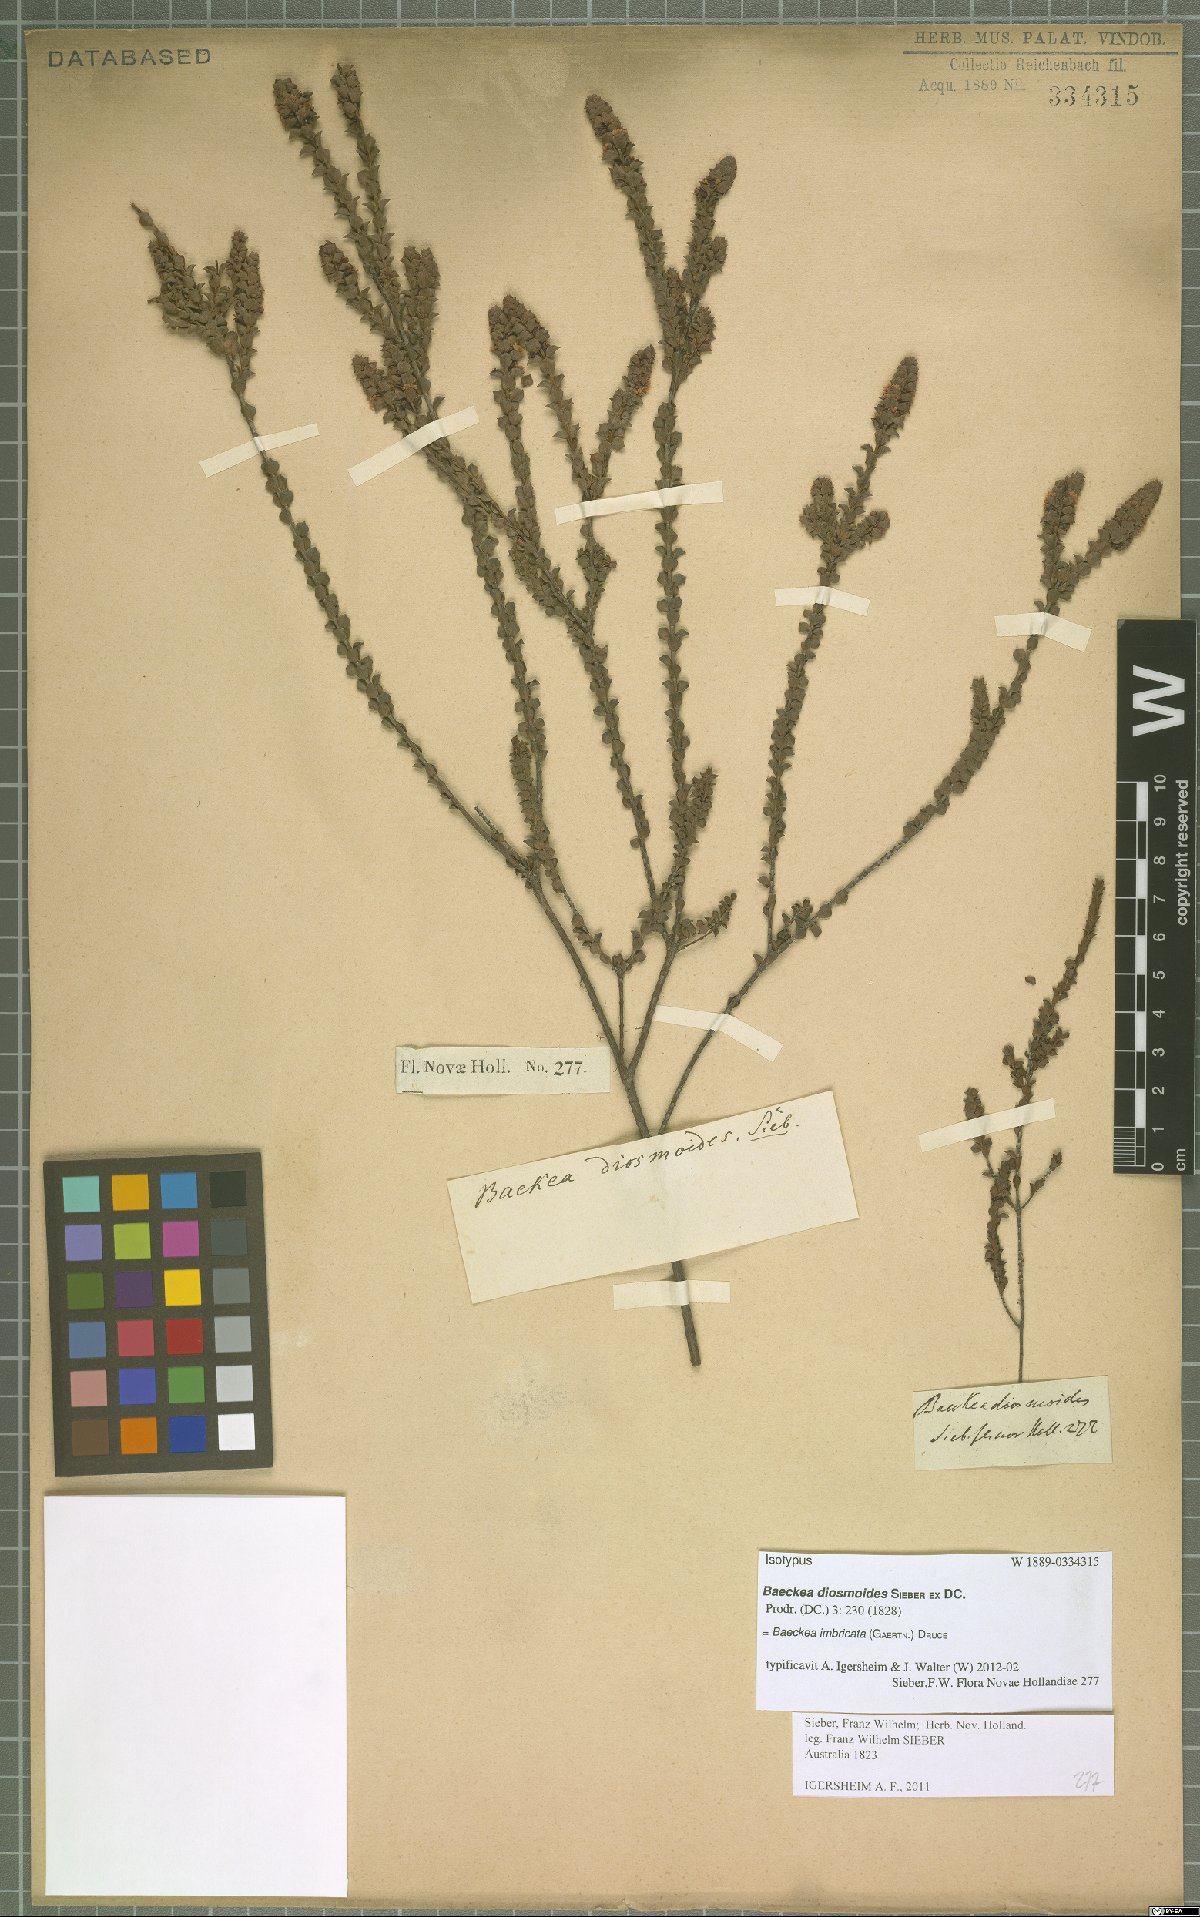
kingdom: Plantae
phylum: Tracheophyta
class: Magnoliopsida
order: Myrtales
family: Myrtaceae
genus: Baeckea
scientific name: Baeckea imbricata
